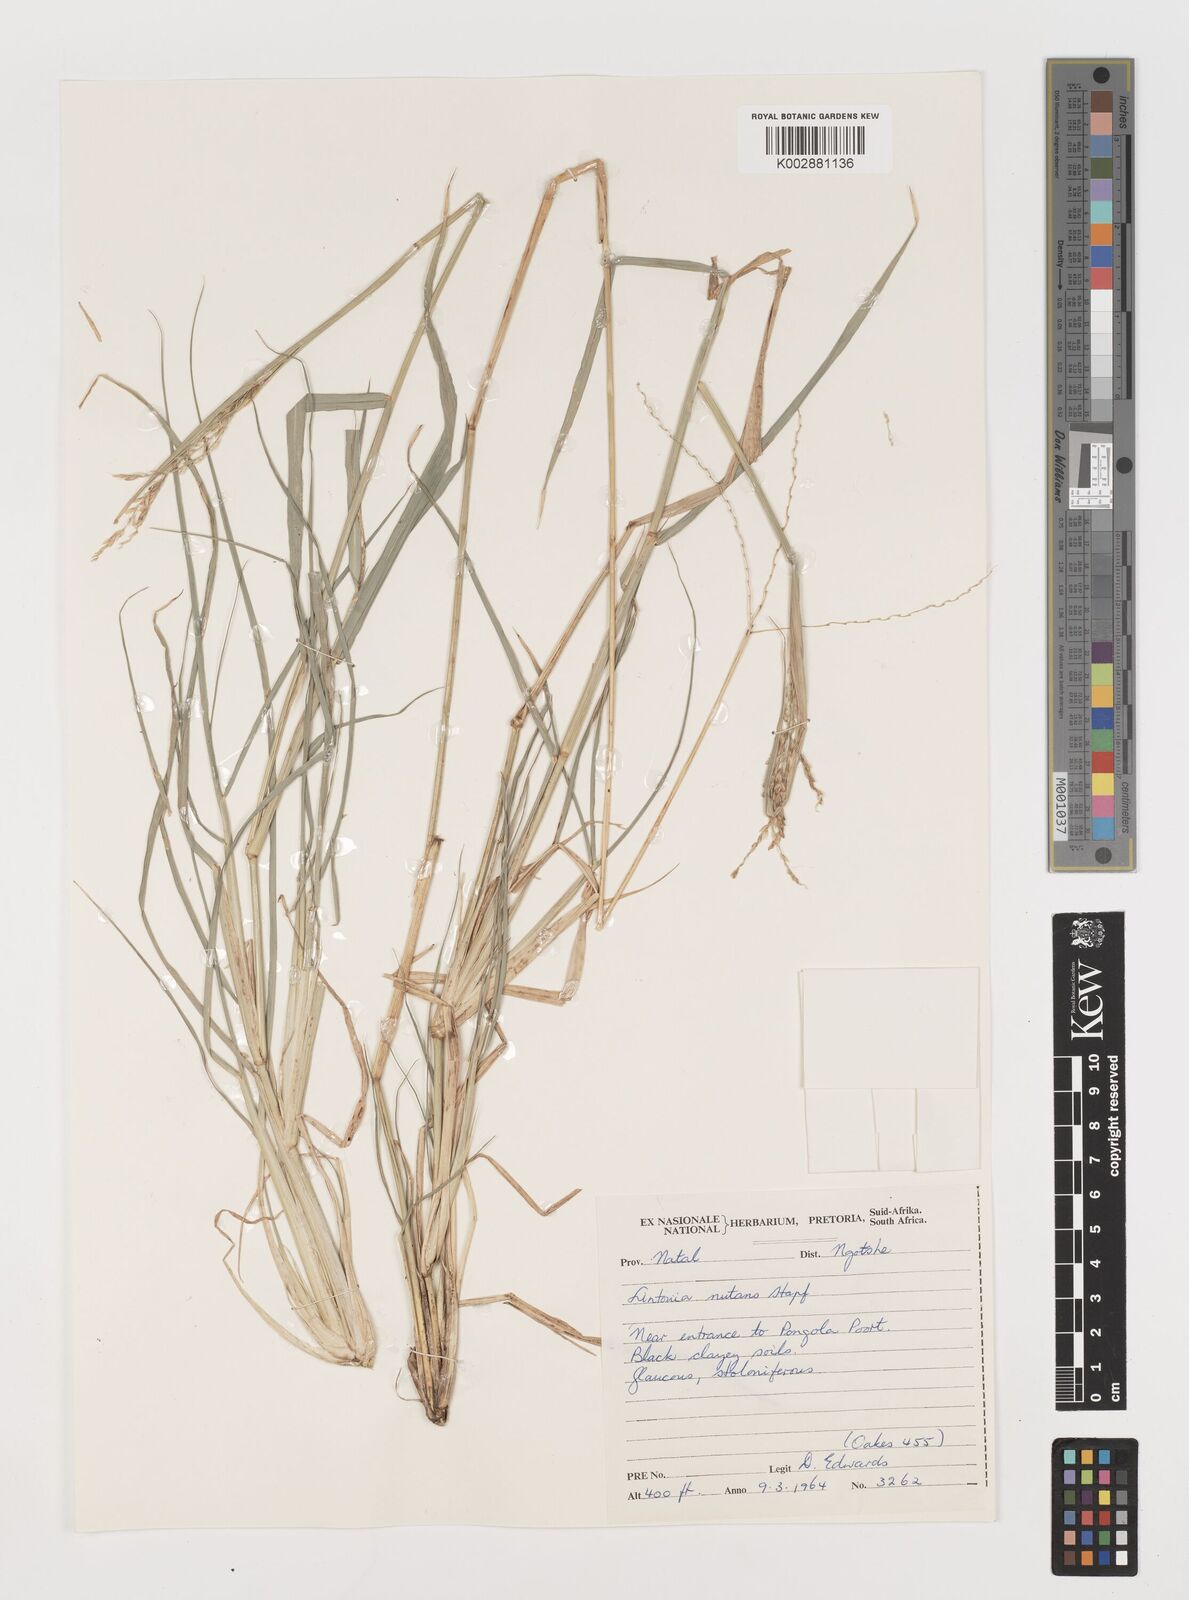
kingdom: Plantae
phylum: Tracheophyta
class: Liliopsida
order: Poales
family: Poaceae
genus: Chloris
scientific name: Chloris nutans
